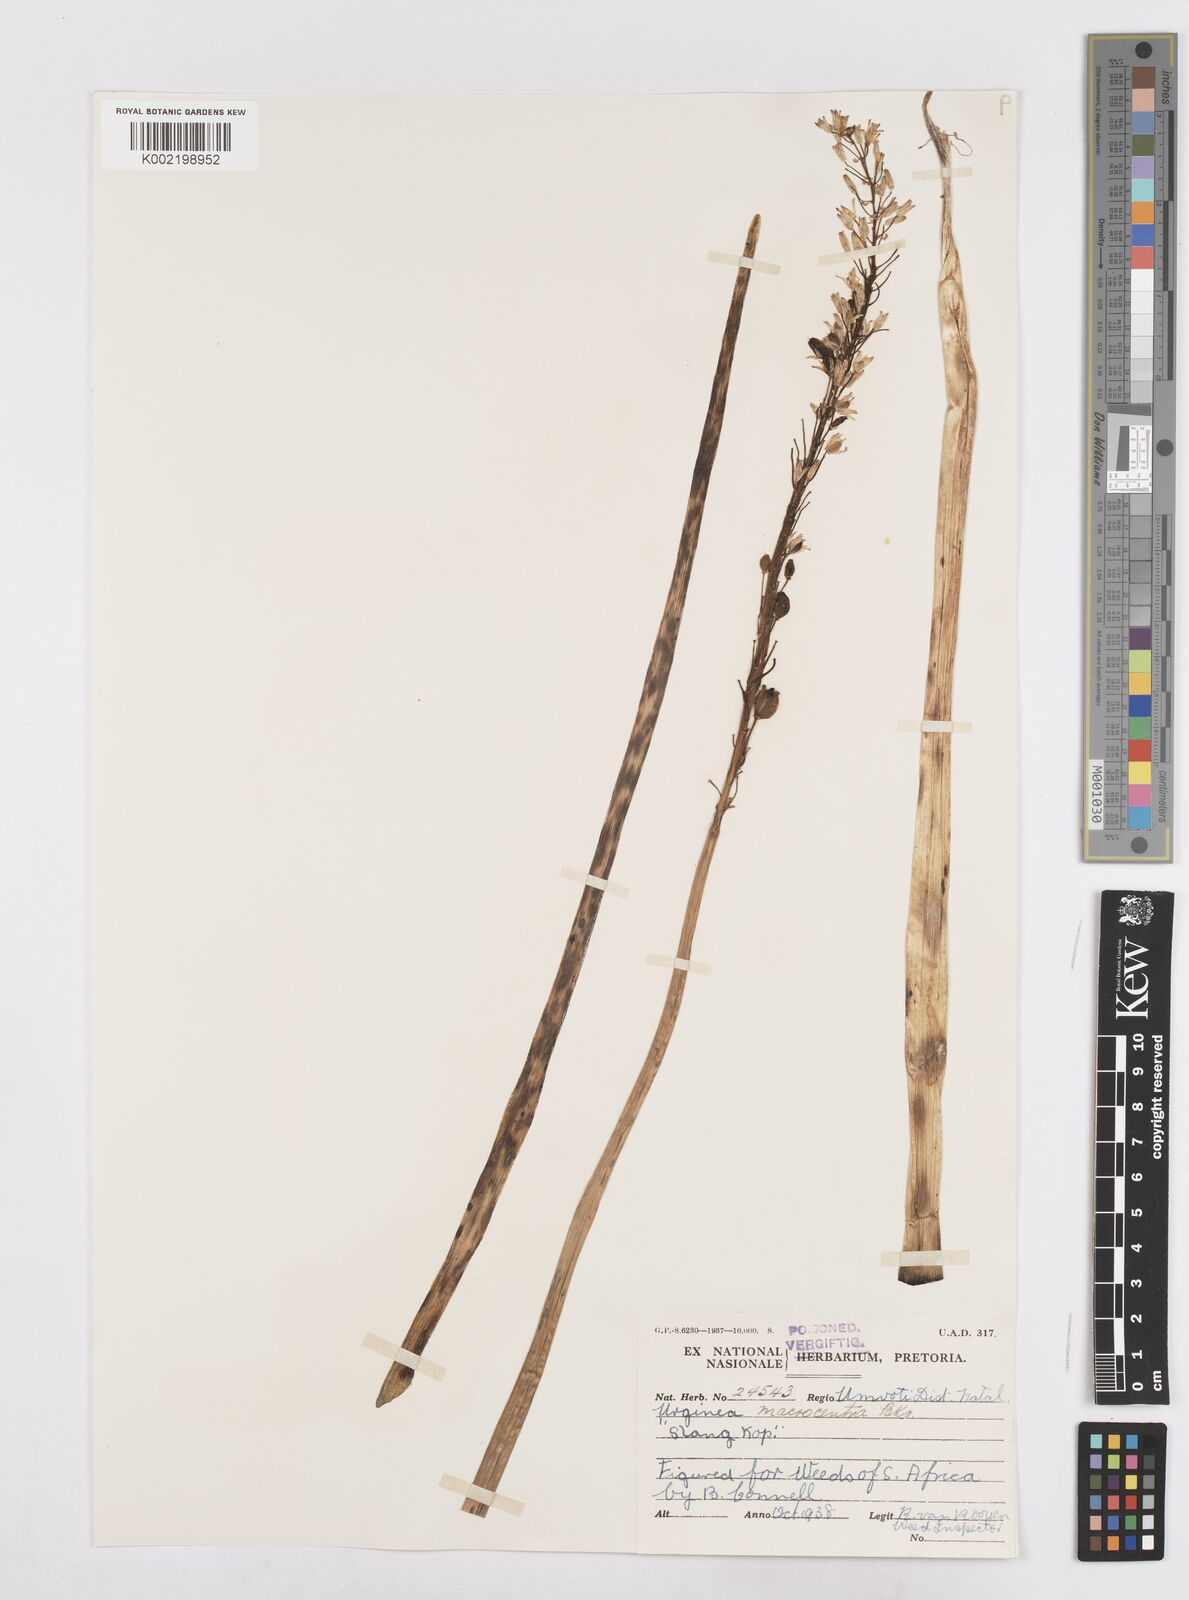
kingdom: Plantae
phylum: Tracheophyta
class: Liliopsida
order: Asparagales
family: Asparagaceae
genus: Drimia
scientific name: Drimia macrocentra
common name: Natal slangkop
